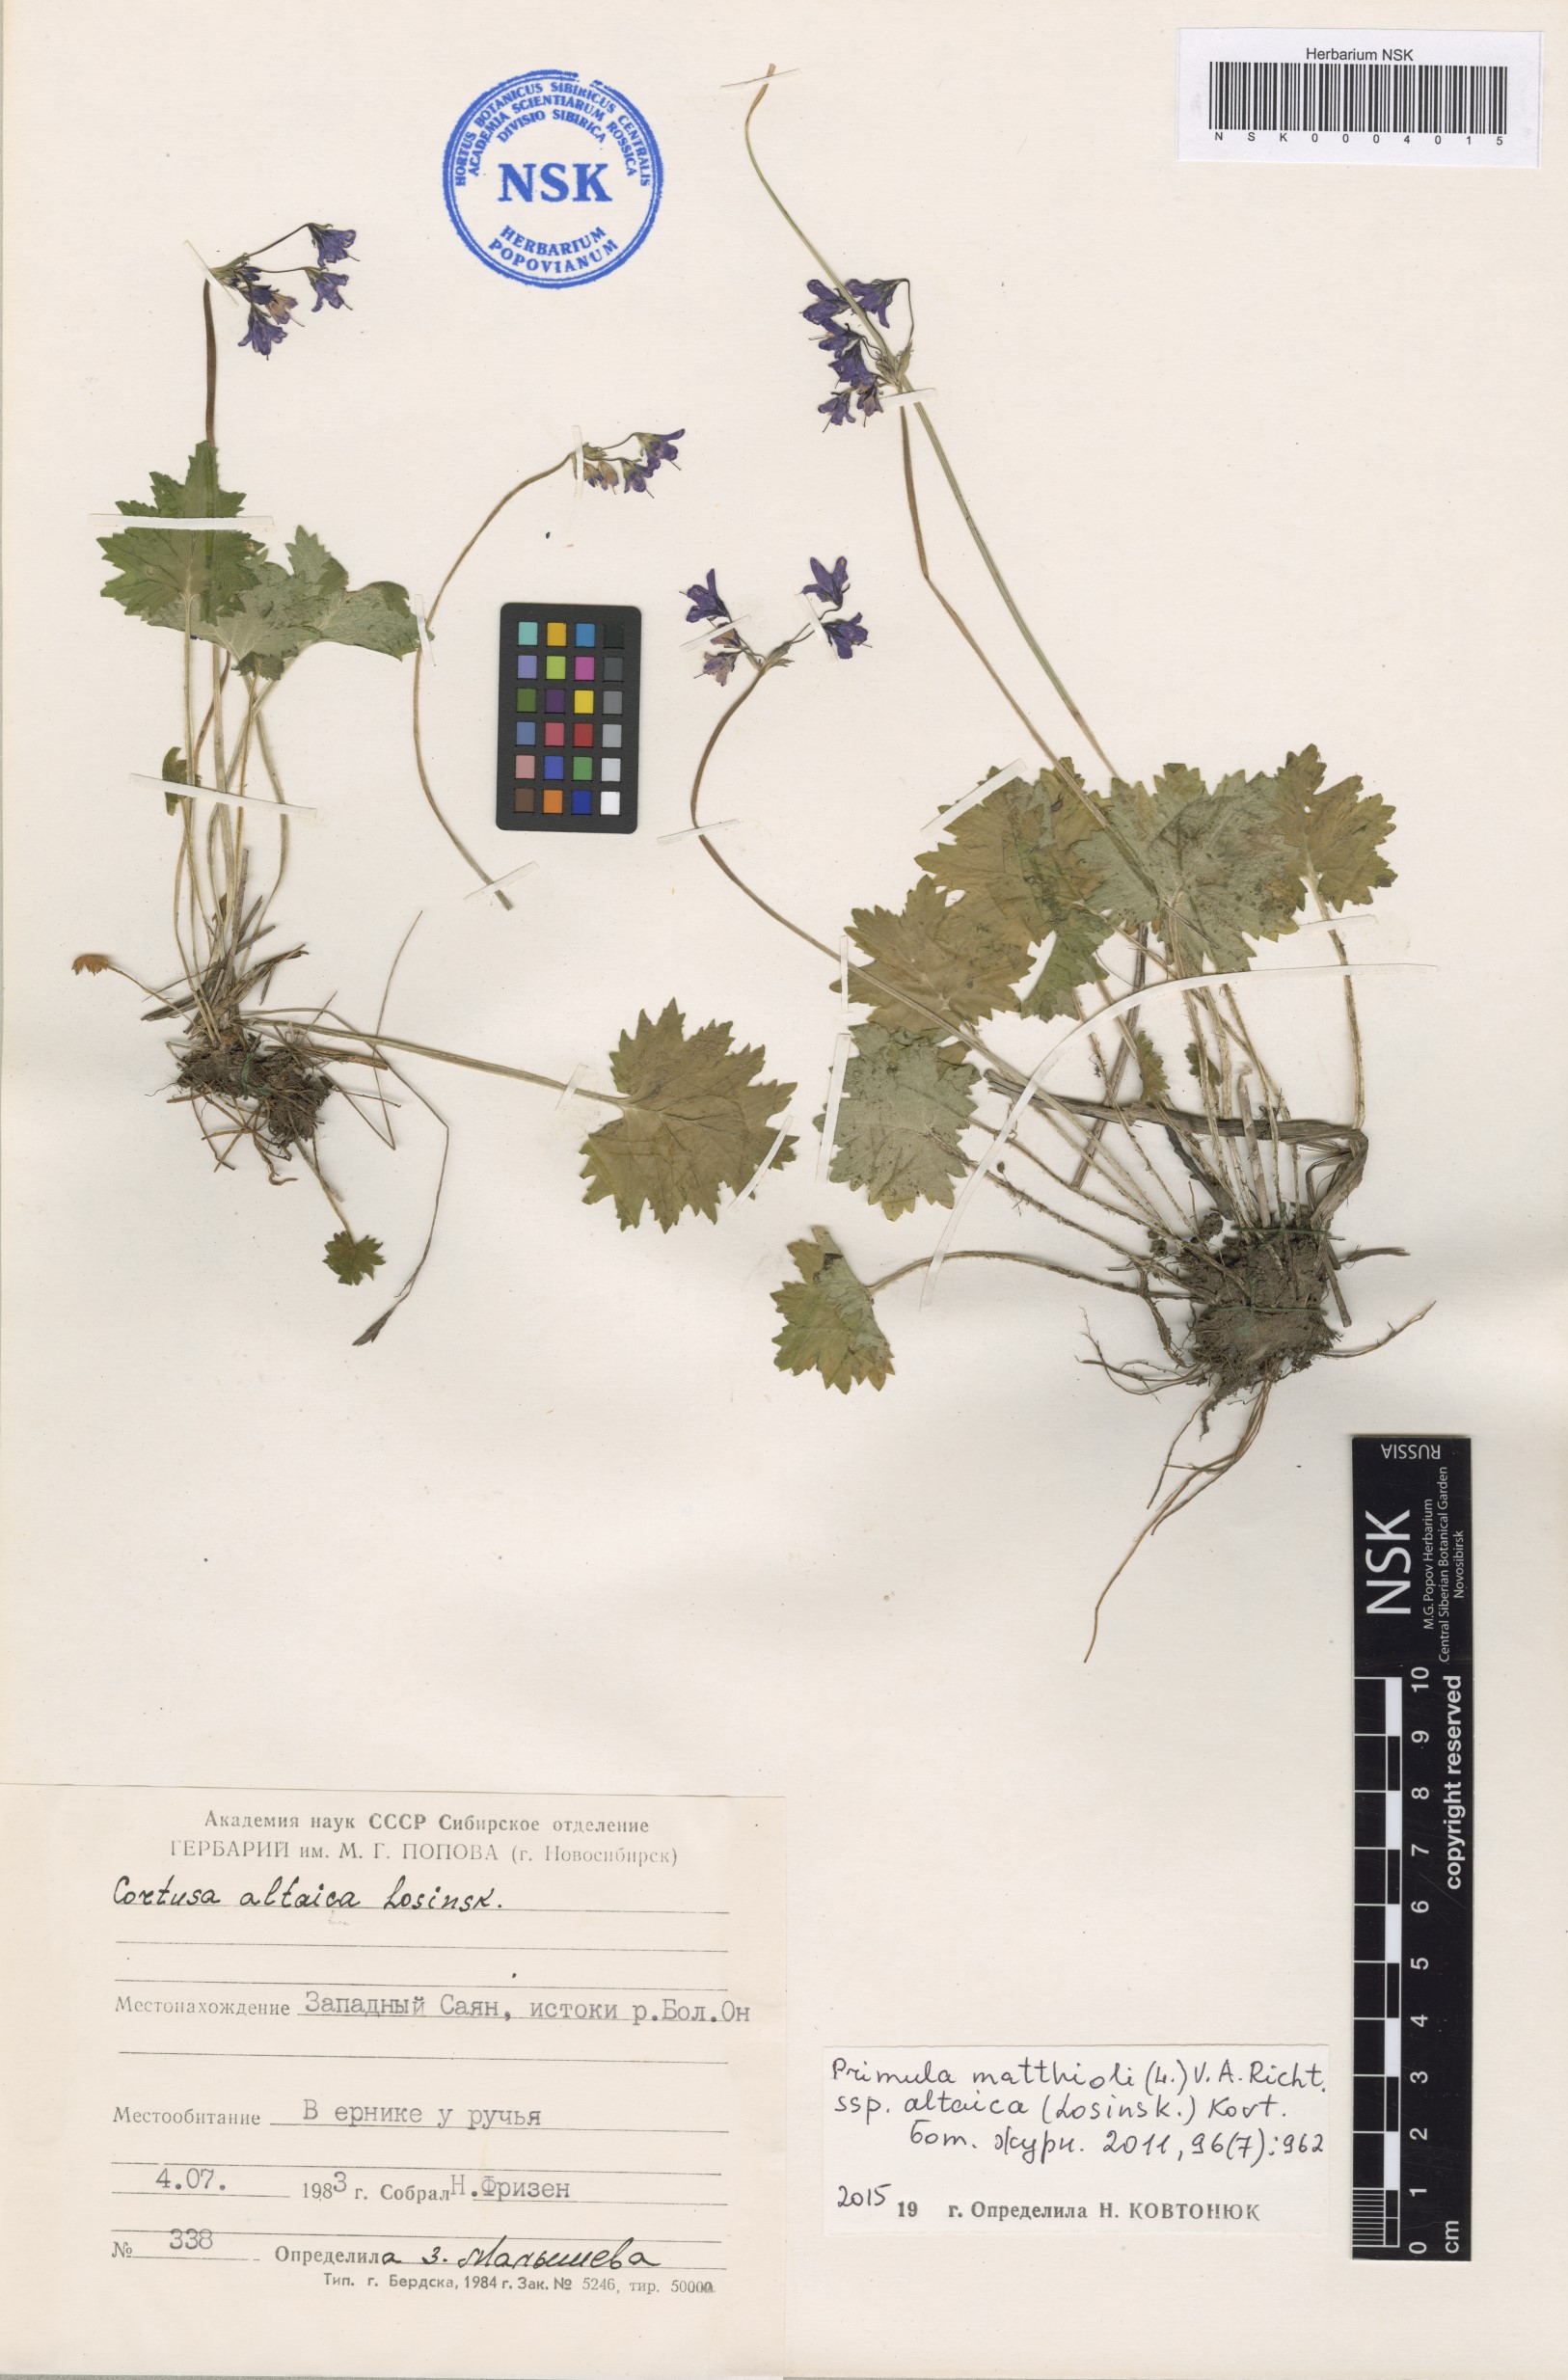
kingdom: Plantae
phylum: Tracheophyta
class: Magnoliopsida
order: Ericales
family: Primulaceae
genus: Primula
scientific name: Primula matthioli
